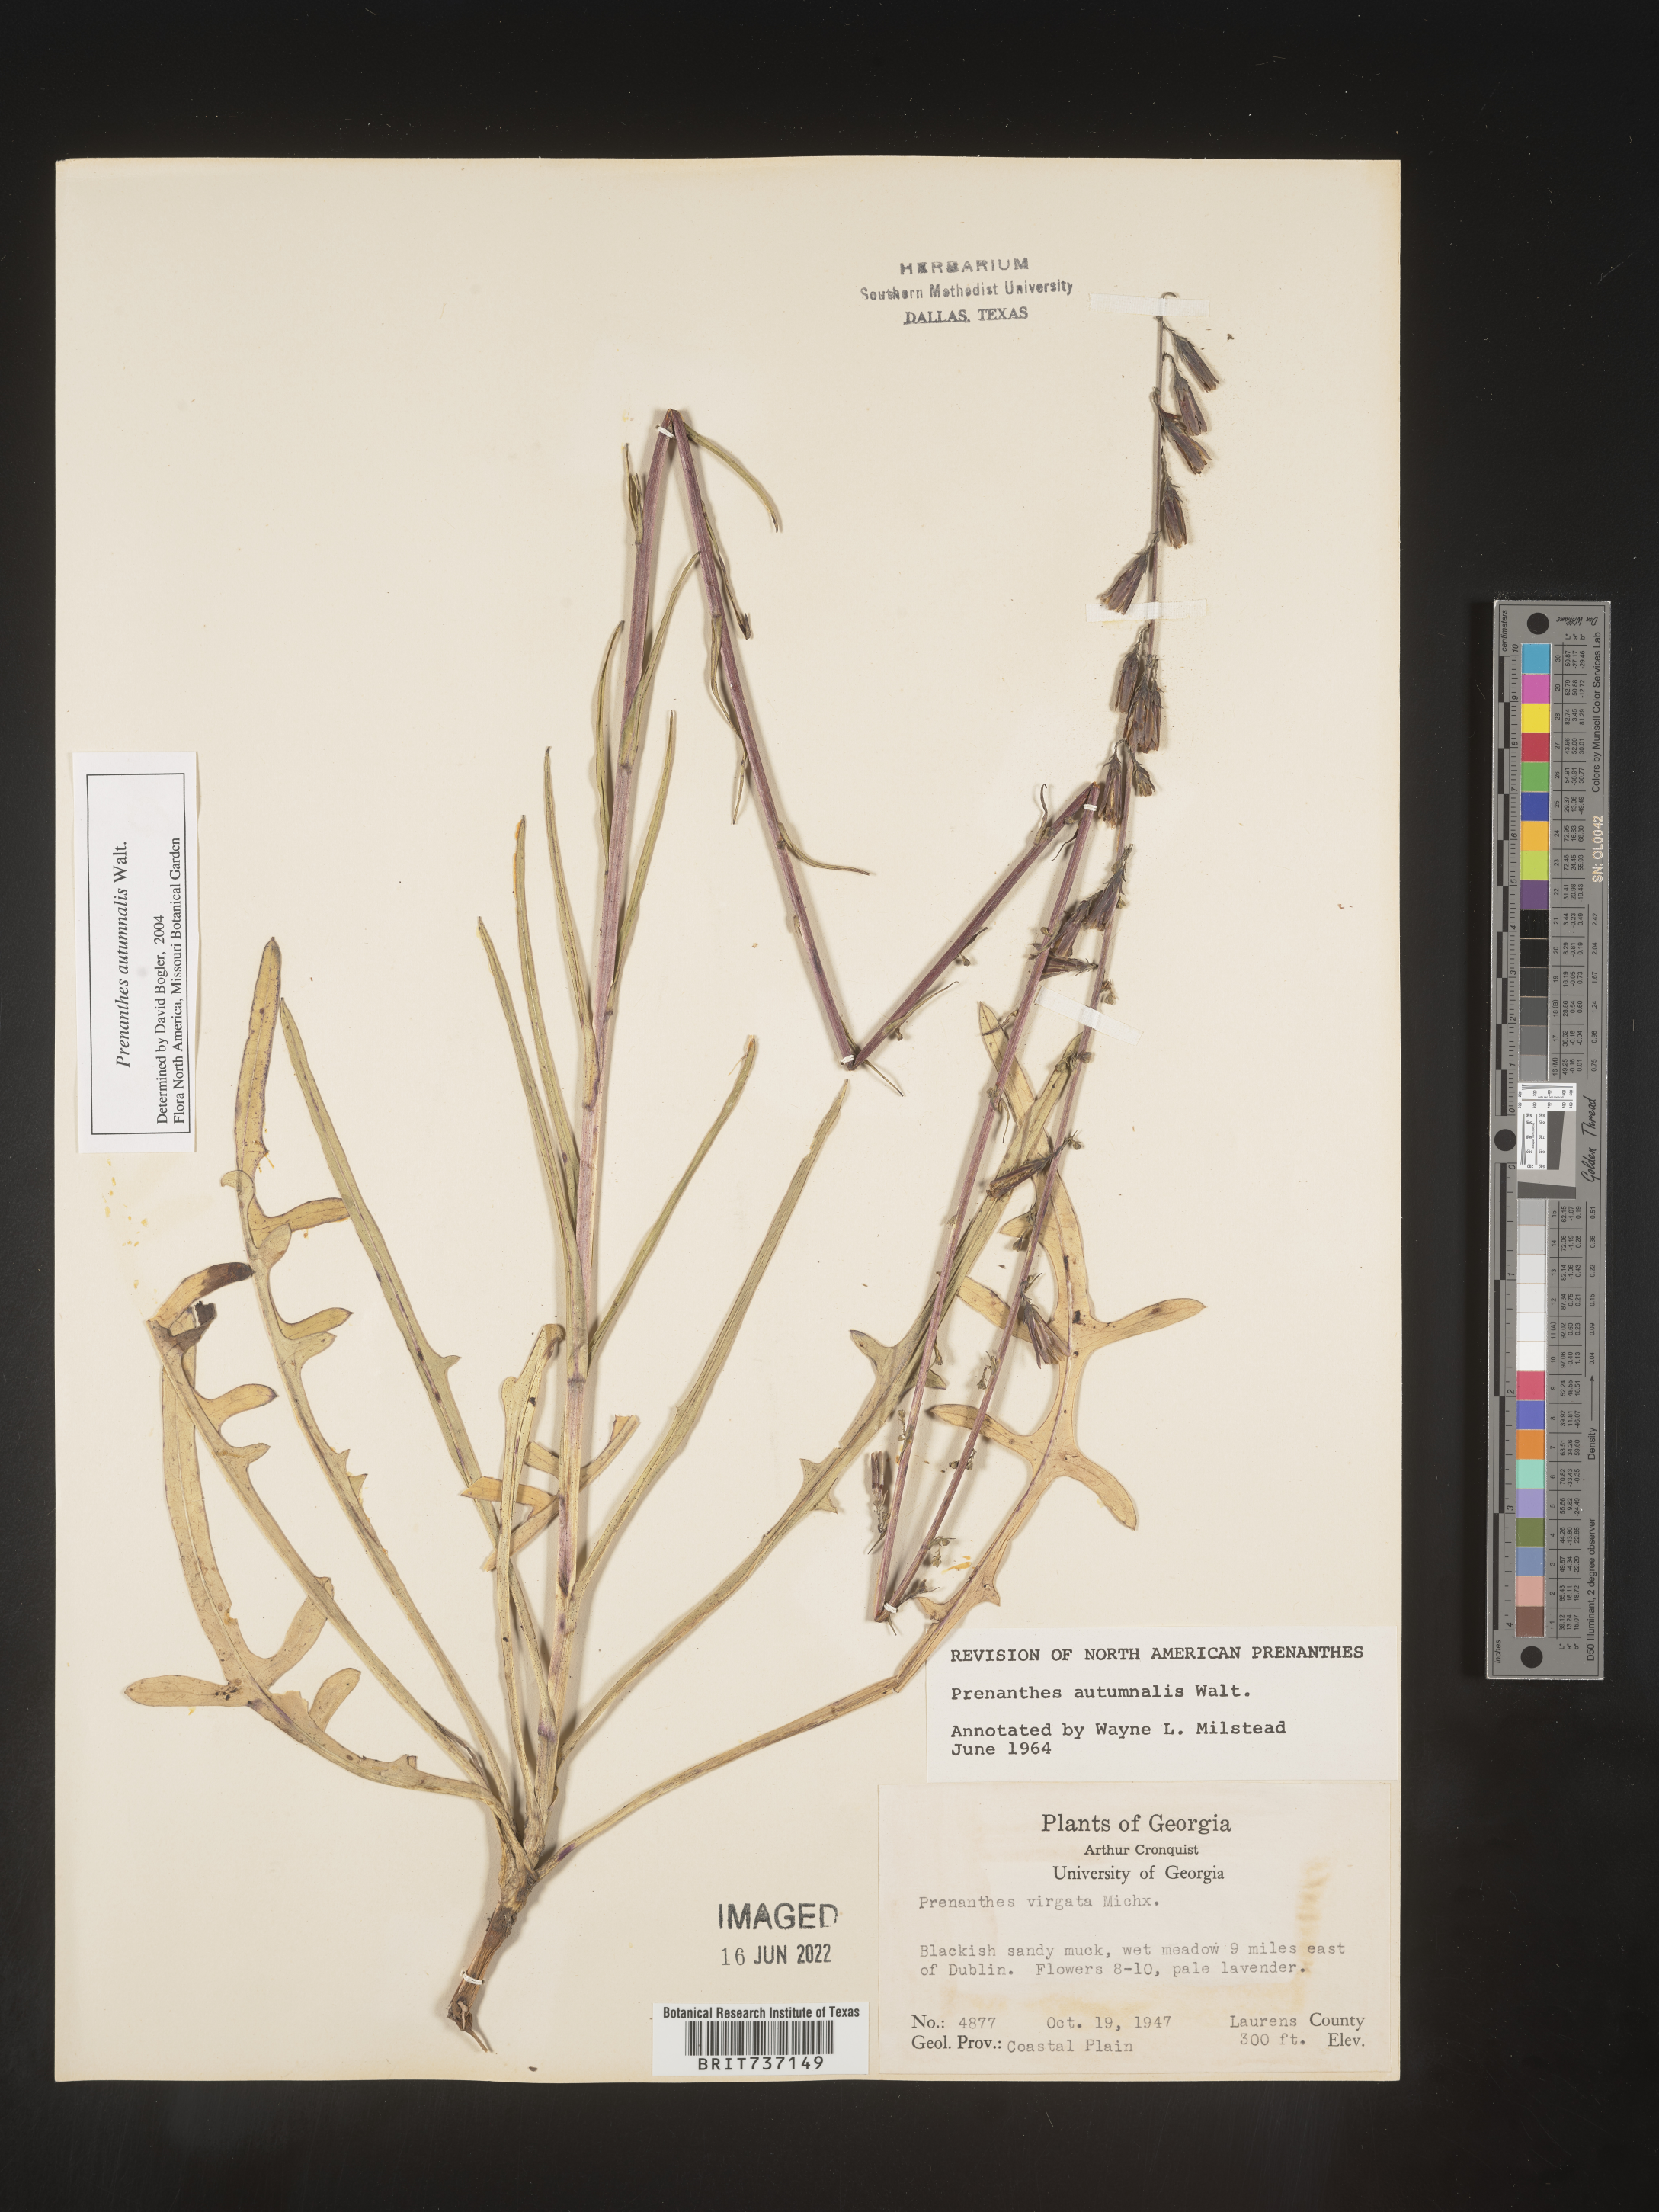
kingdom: Plantae
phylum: Tracheophyta
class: Magnoliopsida
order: Asterales
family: Asteraceae
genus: Prenanthes
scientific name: Prenanthes
